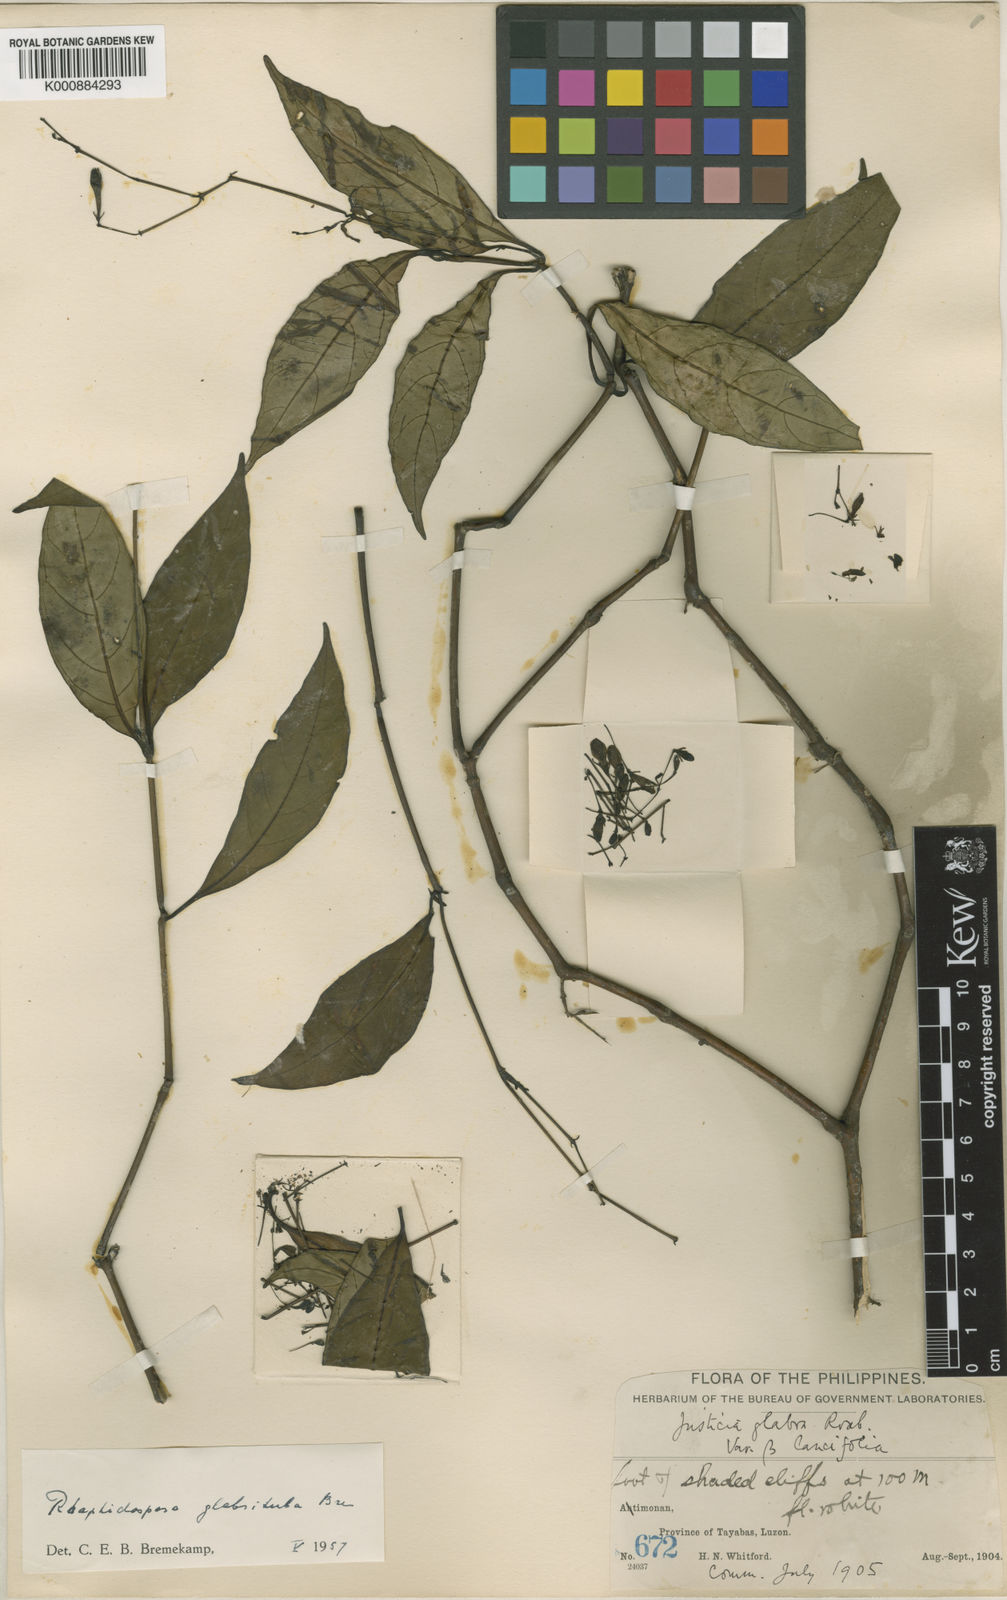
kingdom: Plantae
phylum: Tracheophyta
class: Magnoliopsida
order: Lamiales
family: Acanthaceae
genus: Justicia
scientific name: Justicia scandens
